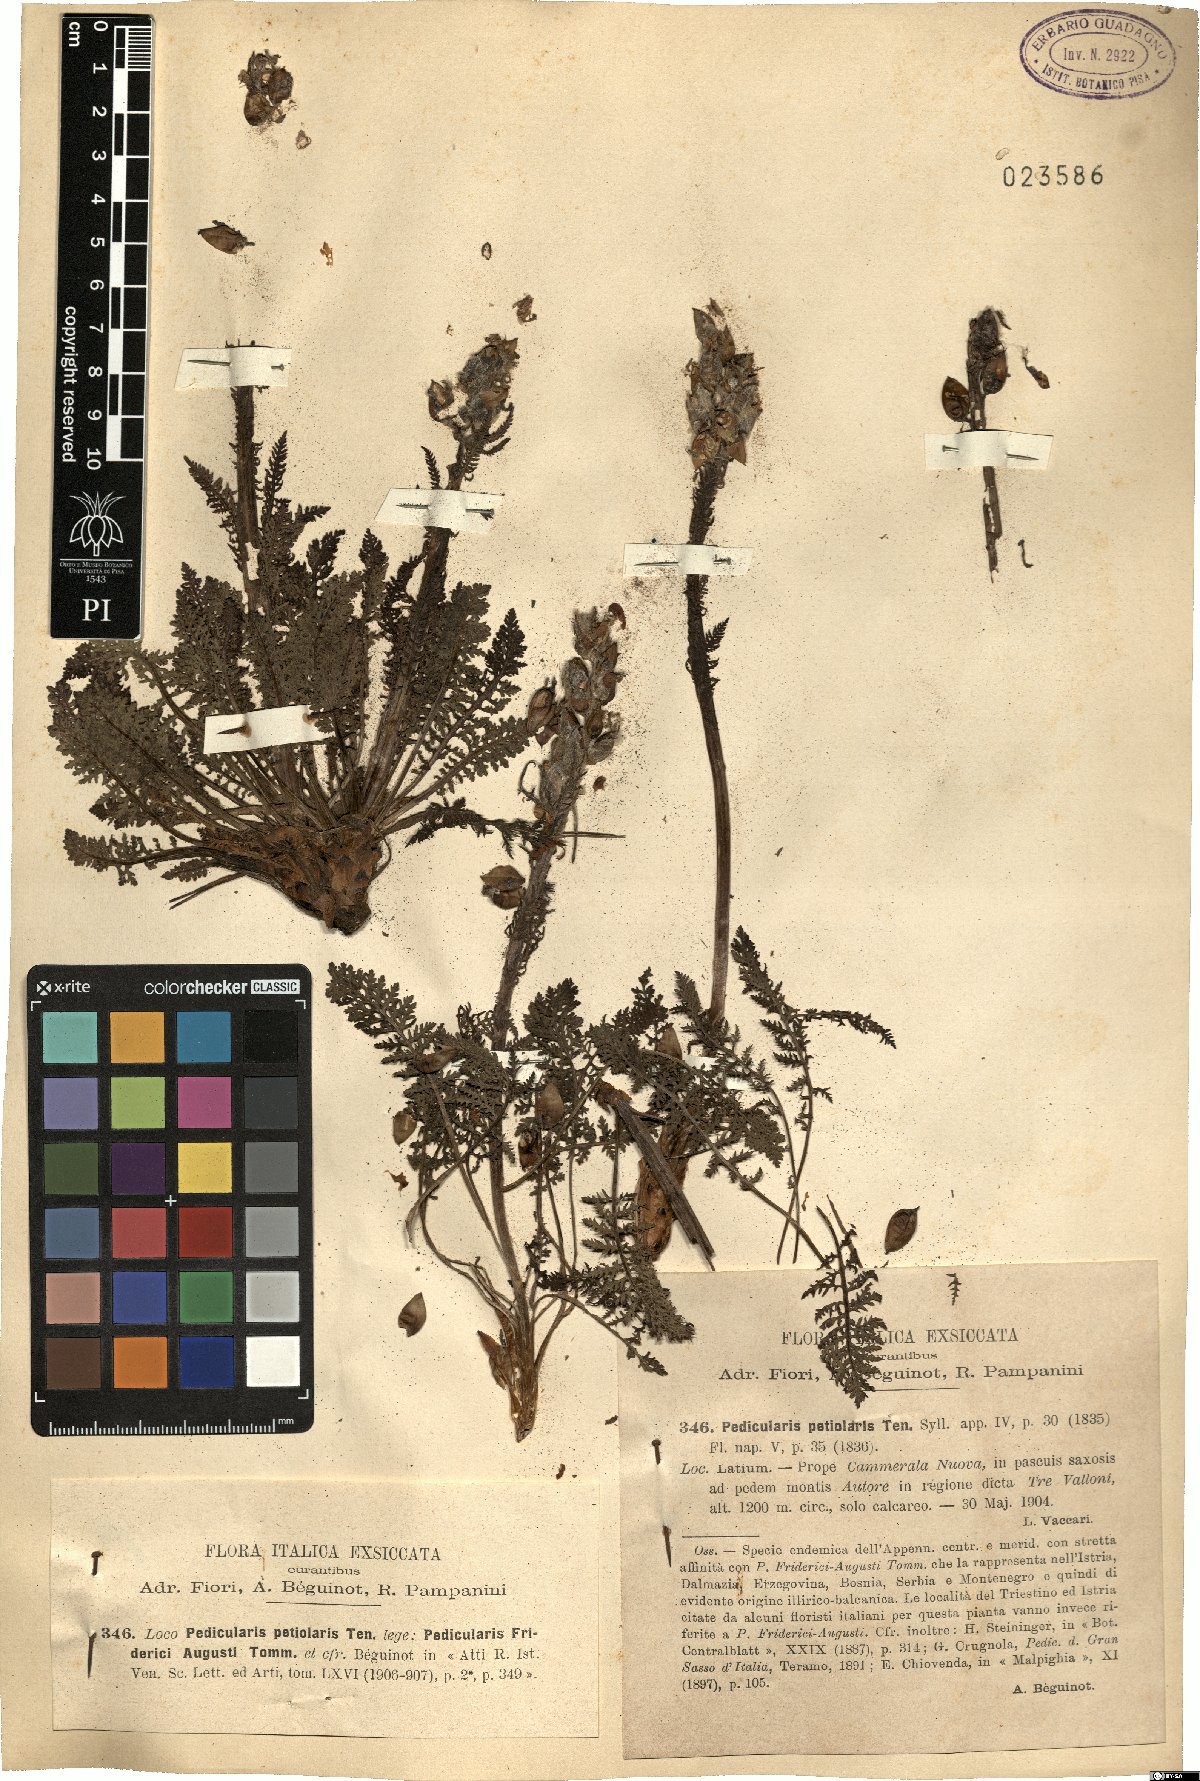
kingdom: Plantae
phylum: Tracheophyta
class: Magnoliopsida
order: Lamiales
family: Orobanchaceae
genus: Pedicularis
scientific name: Pedicularis friderici-augusti
